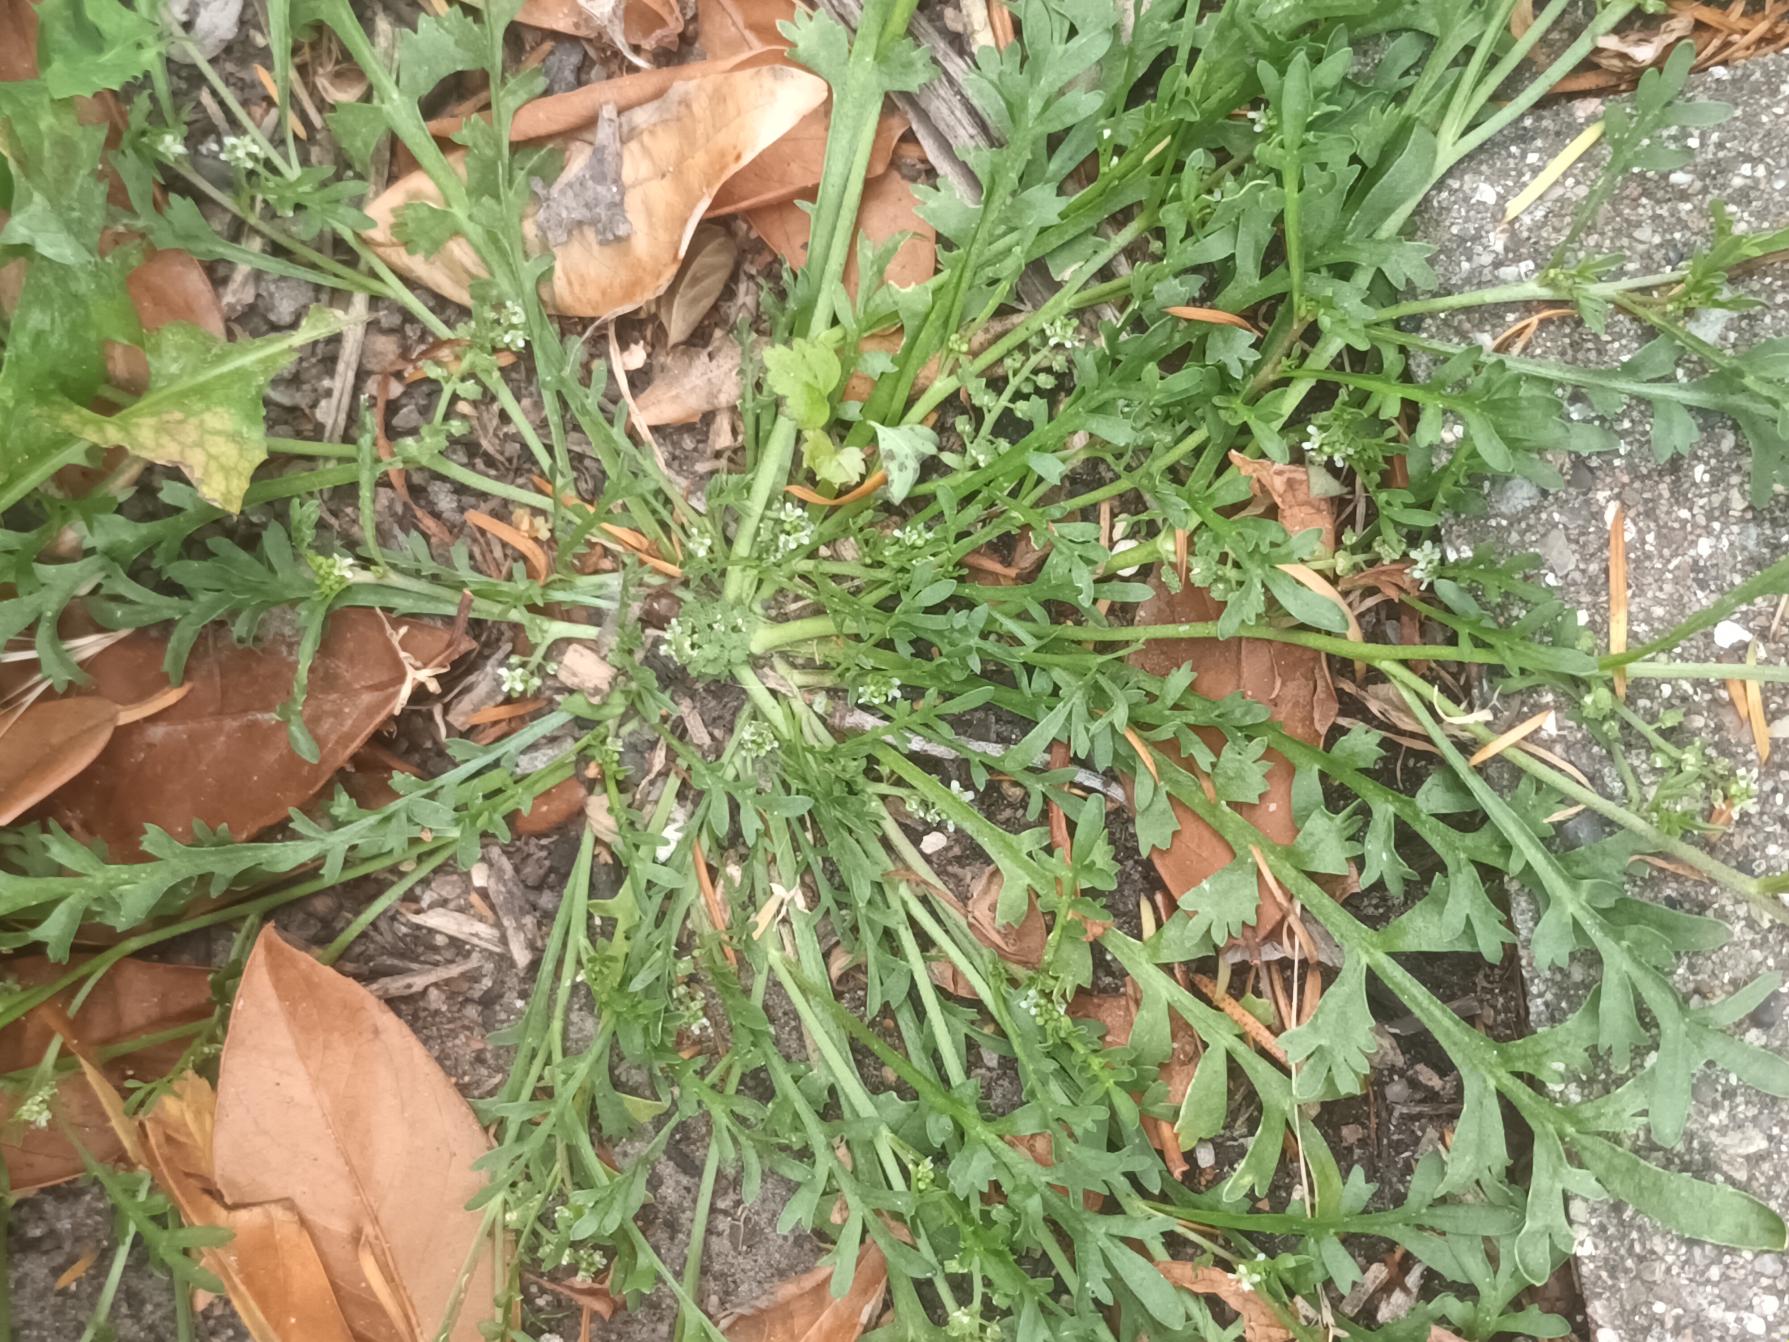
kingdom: Plantae
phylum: Tracheophyta
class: Magnoliopsida
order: Brassicales
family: Brassicaceae
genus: Lepidium
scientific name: Lepidium coronopus
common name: Ravnefod
